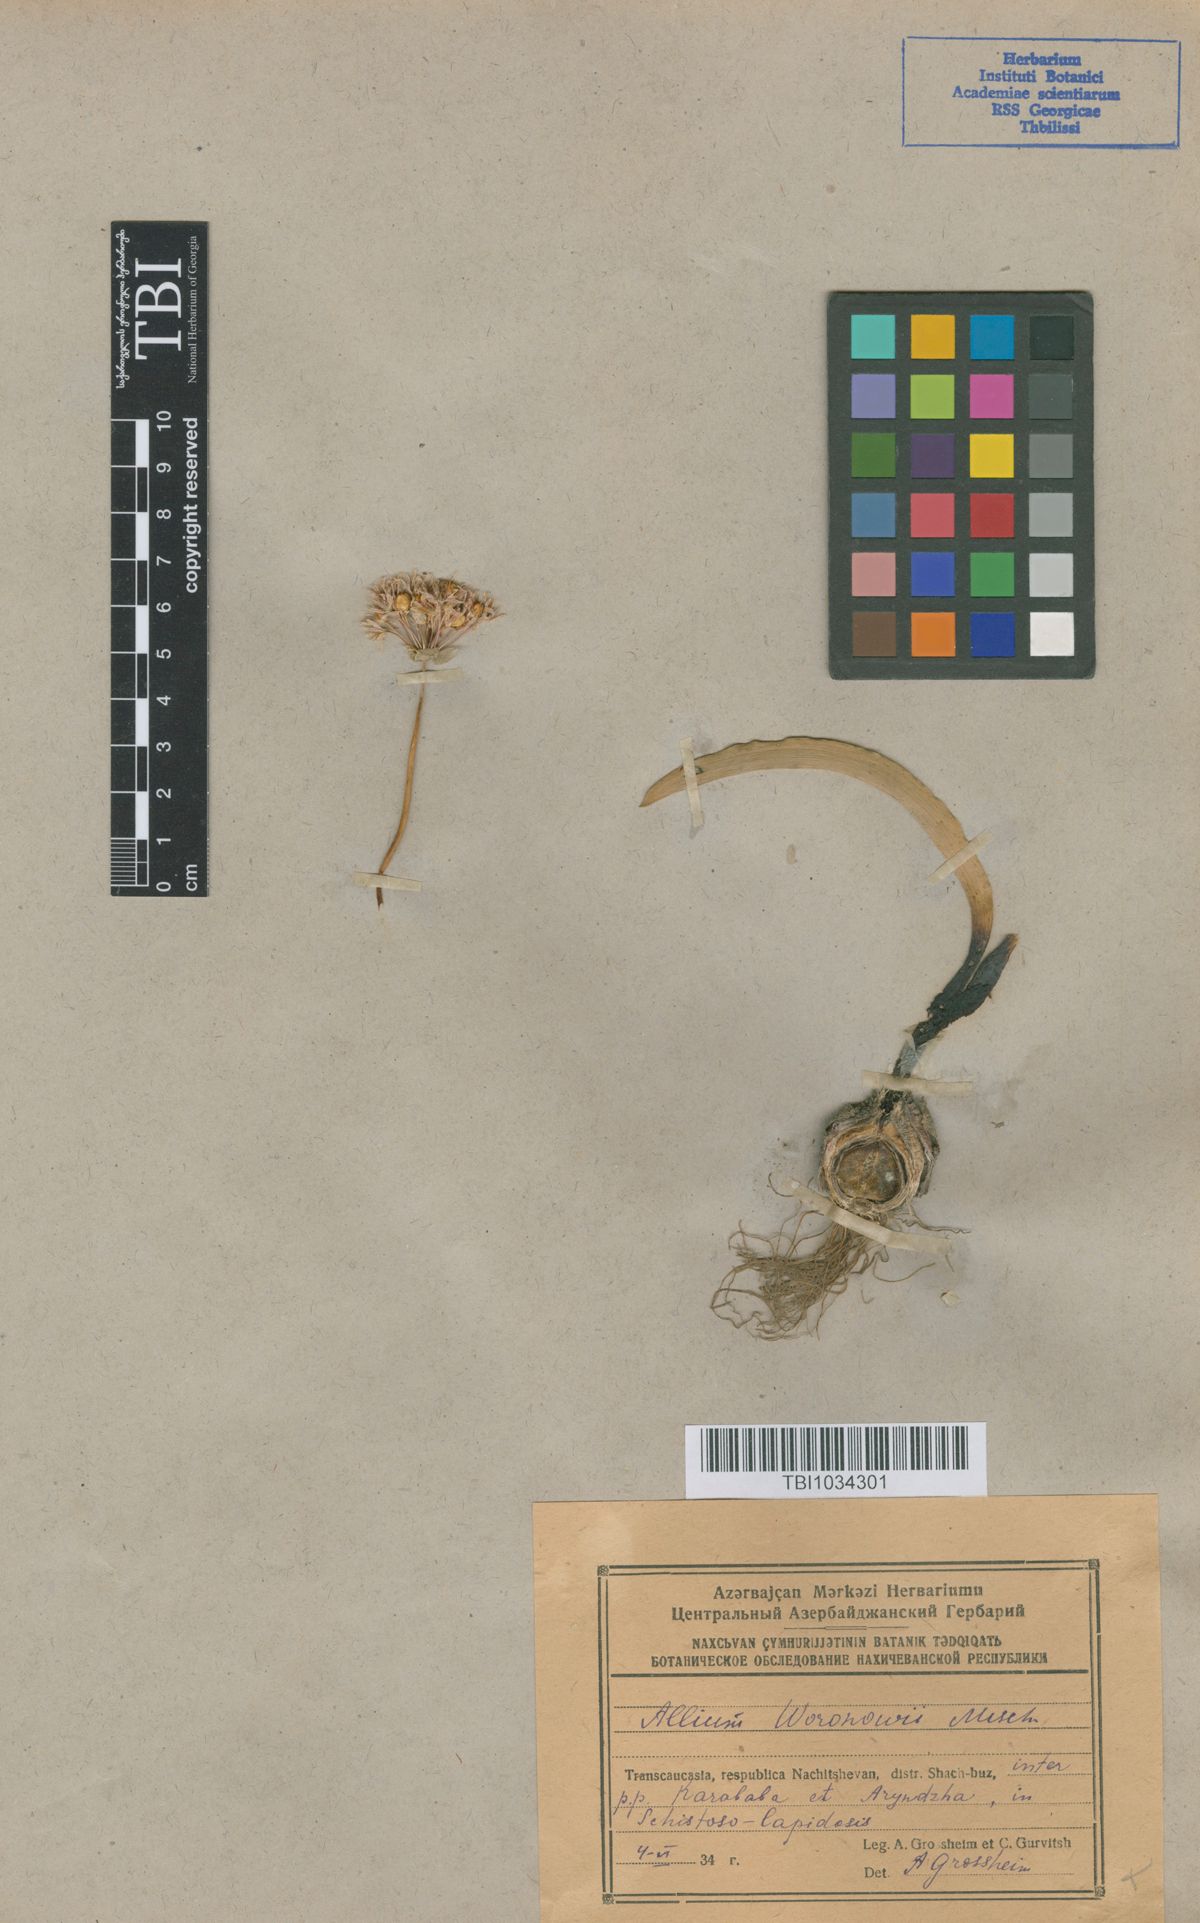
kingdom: Plantae
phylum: Tracheophyta
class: Liliopsida
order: Asparagales
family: Amaryllidaceae
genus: Allium
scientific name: Allium woronowii
